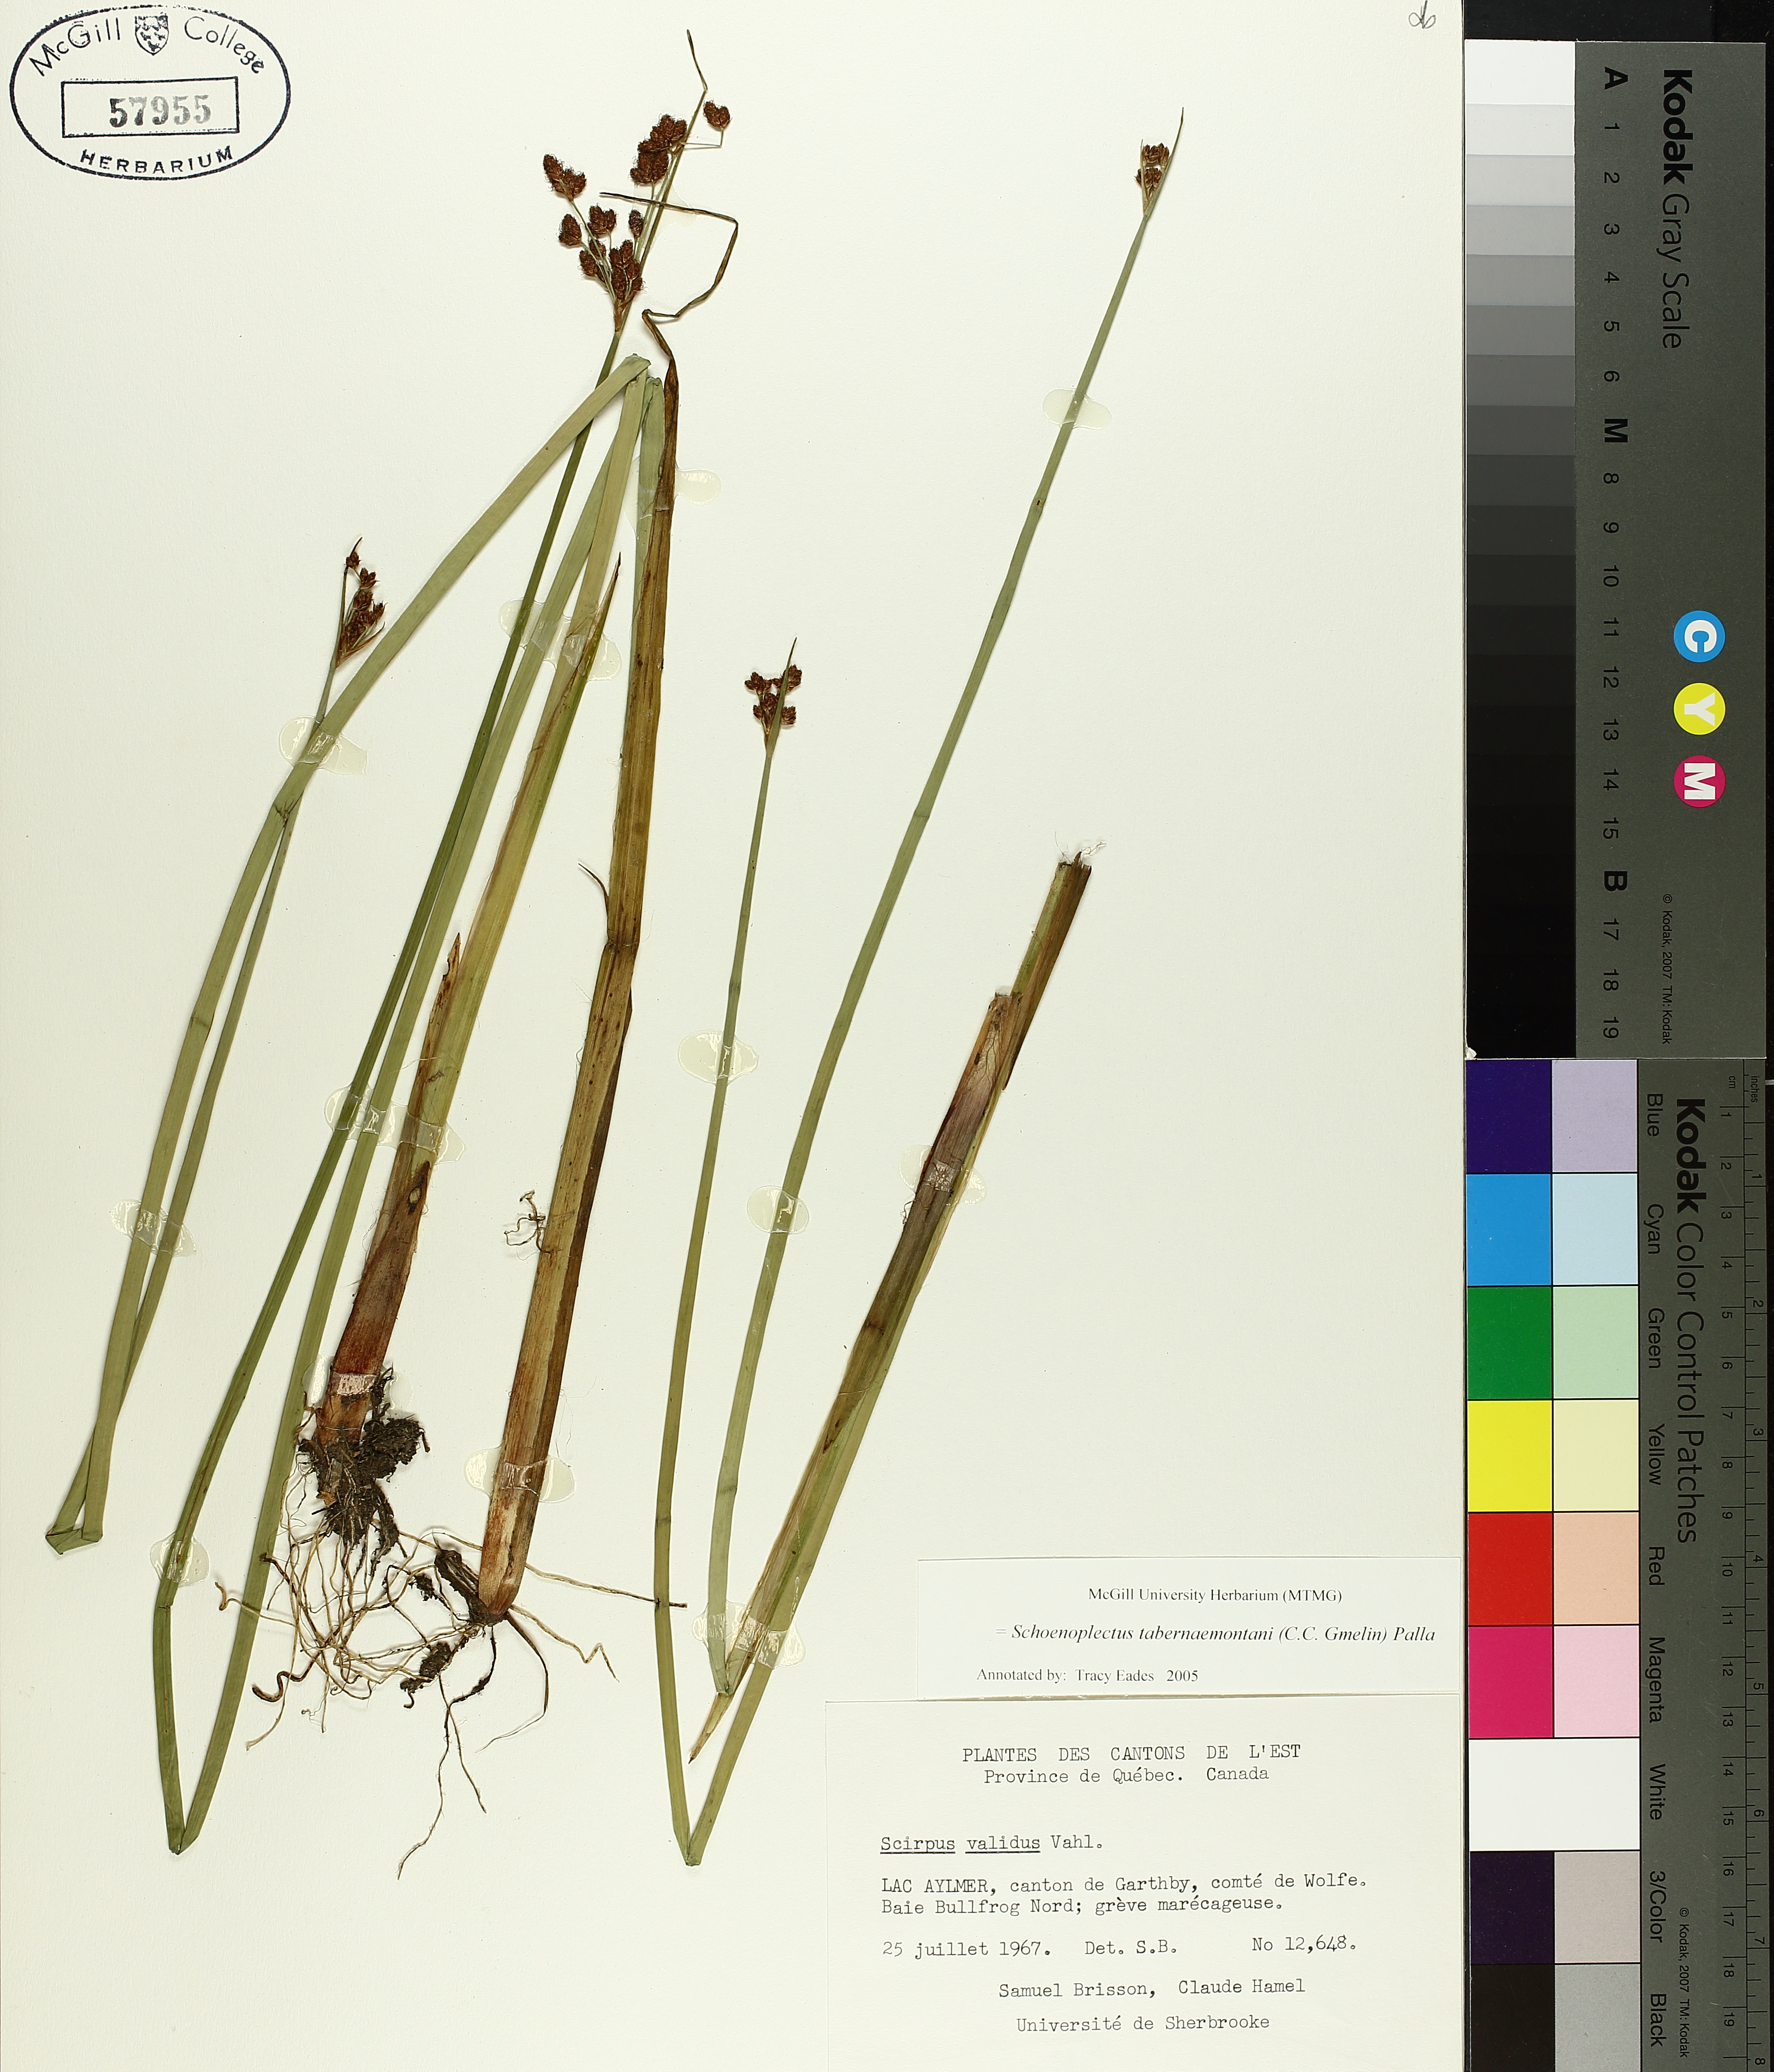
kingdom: Plantae
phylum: Tracheophyta
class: Liliopsida
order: Poales
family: Cyperaceae
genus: Schoenoplectus
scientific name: Schoenoplectus tabernaemontani
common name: Grey club-rush
